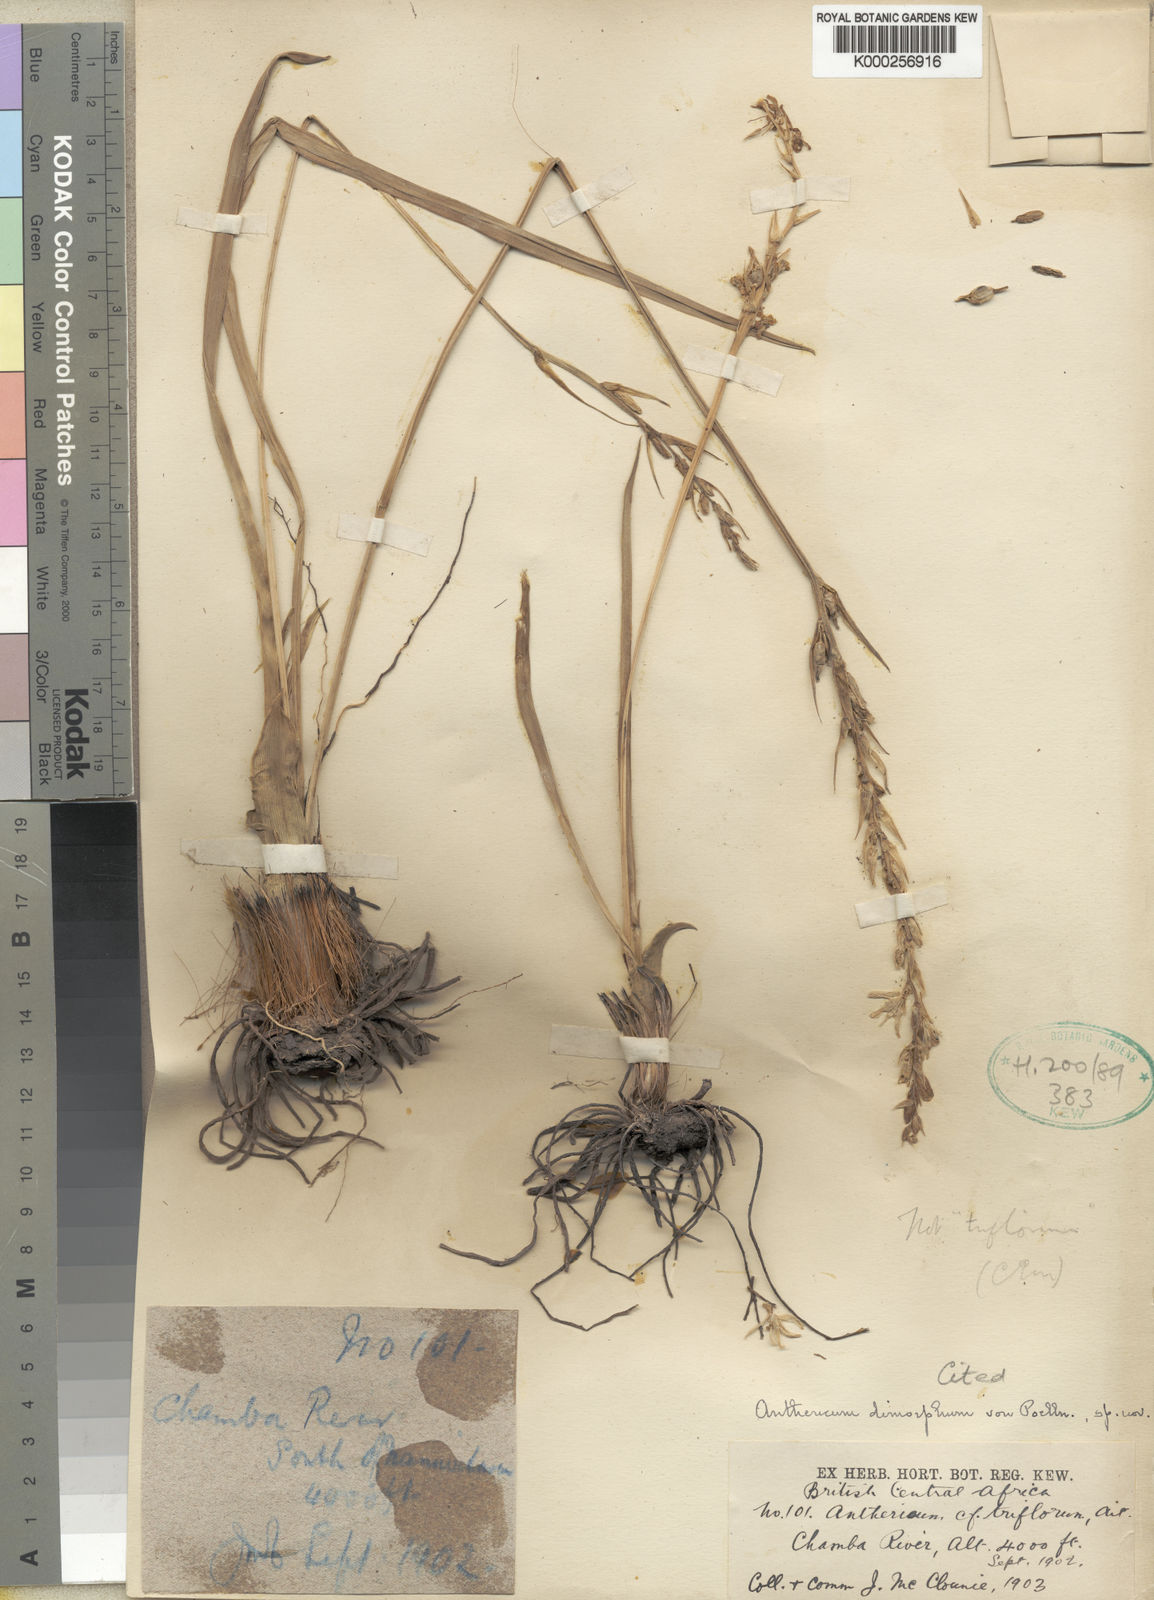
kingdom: Plantae
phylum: Tracheophyta
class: Liliopsida
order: Asparagales
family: Asparagaceae
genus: Chlorophytum
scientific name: Chlorophytum subpetiolatum
